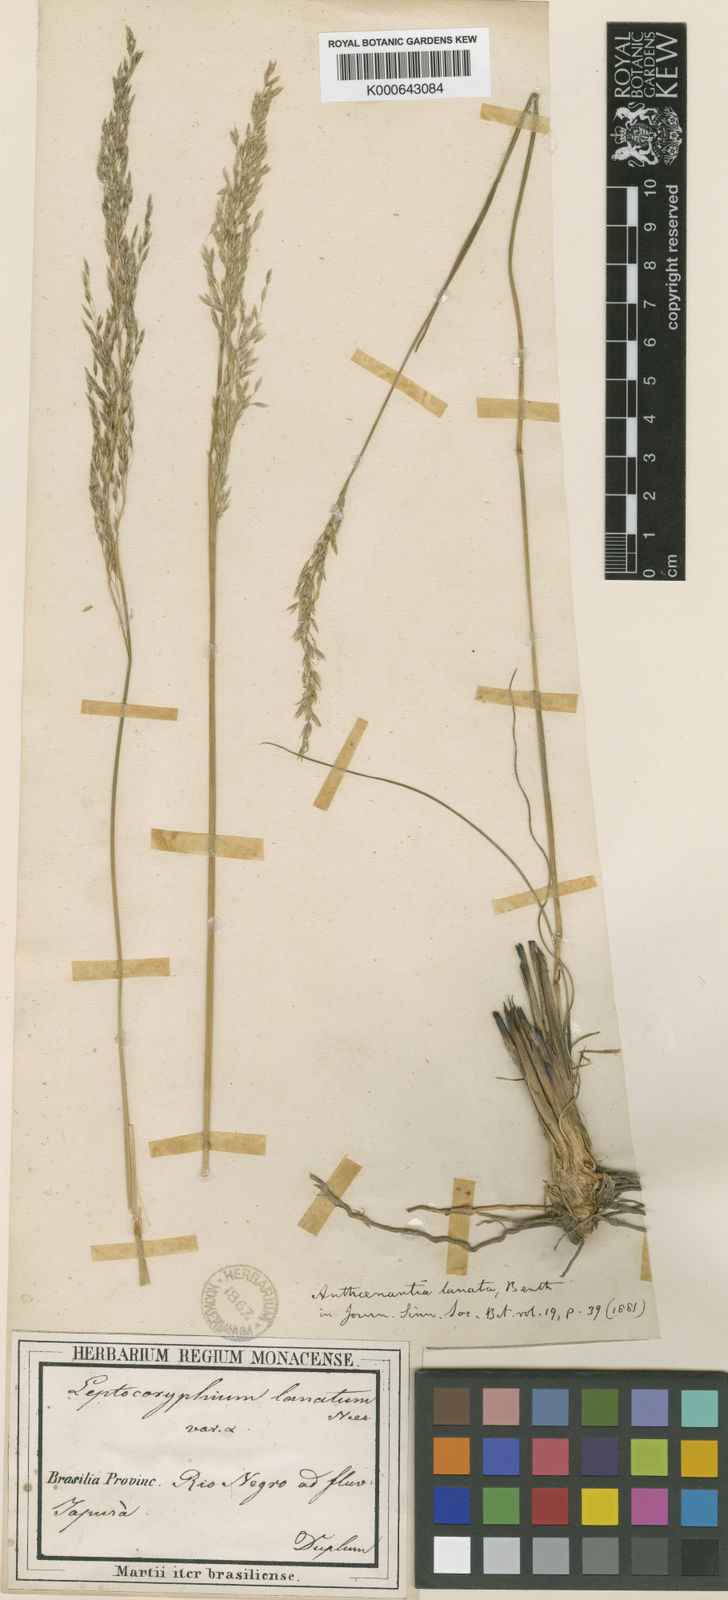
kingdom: Plantae
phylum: Tracheophyta
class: Liliopsida
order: Poales
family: Poaceae
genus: Anthenantia
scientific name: Anthenantia lanata
